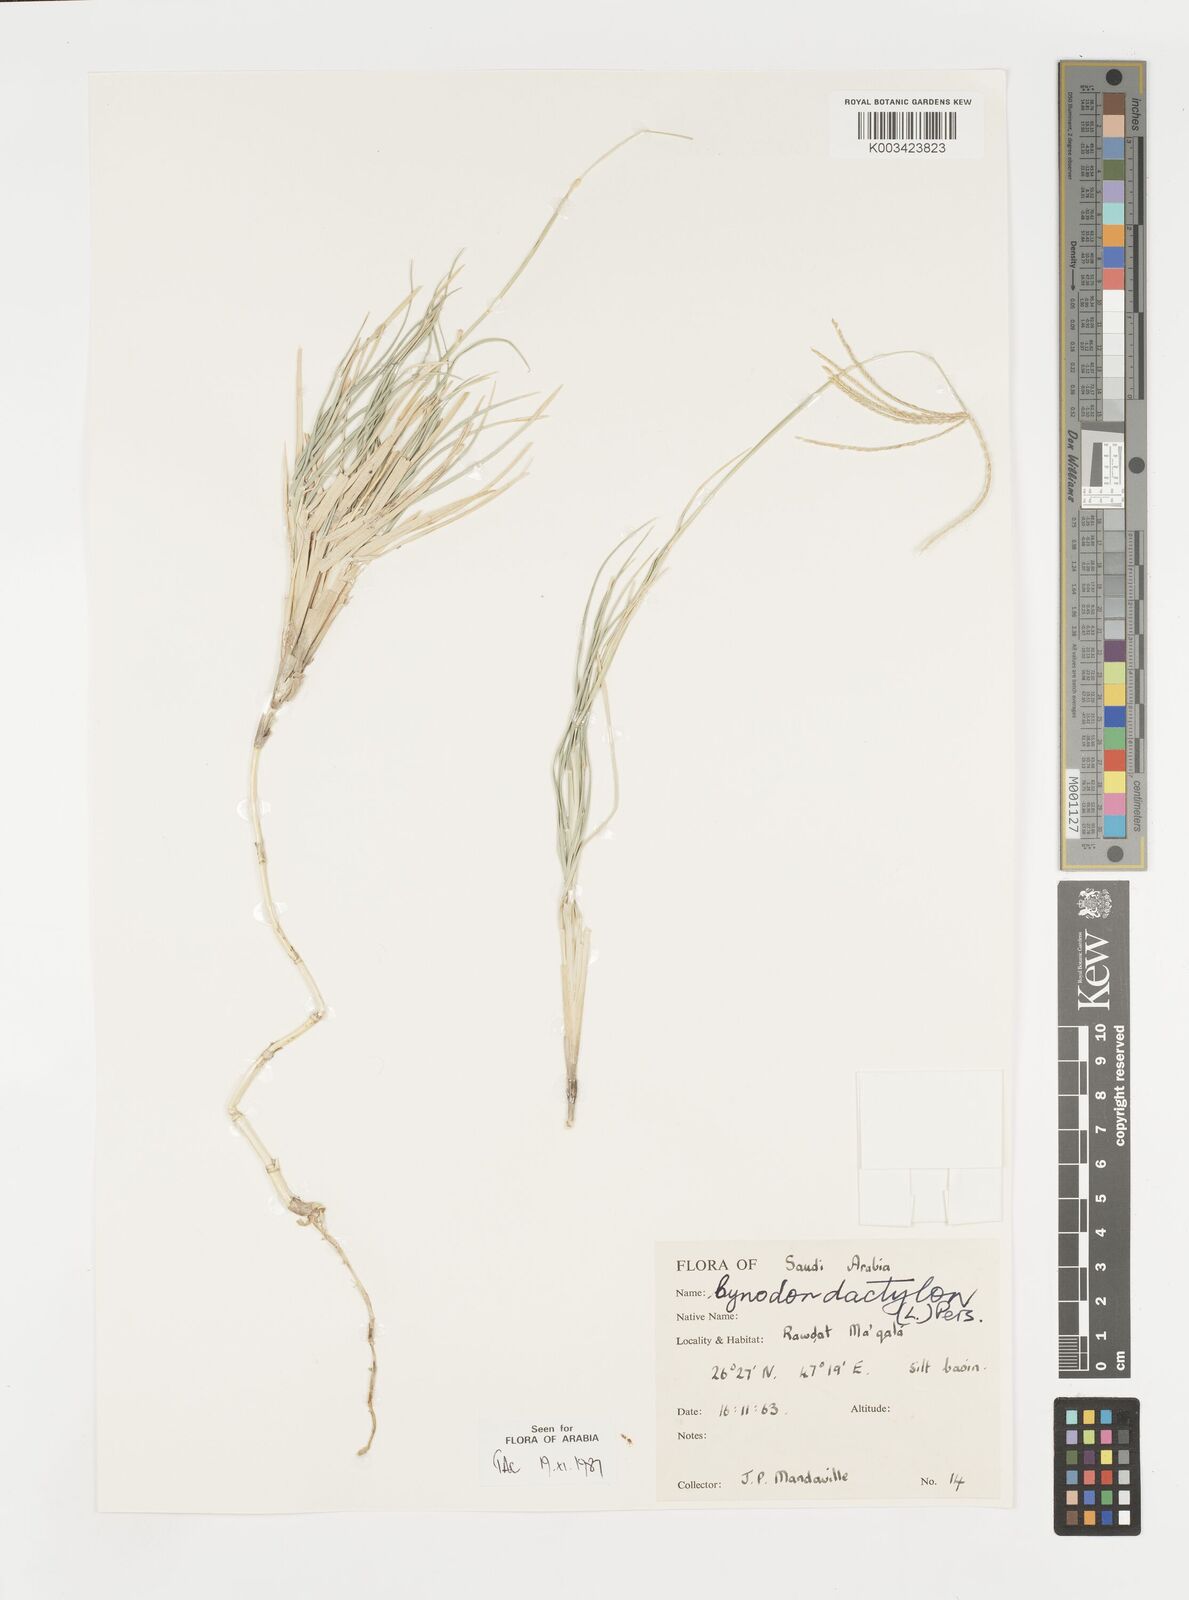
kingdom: Plantae
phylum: Tracheophyta
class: Liliopsida
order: Poales
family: Poaceae
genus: Cynodon
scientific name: Cynodon dactylon
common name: Bermuda grass
